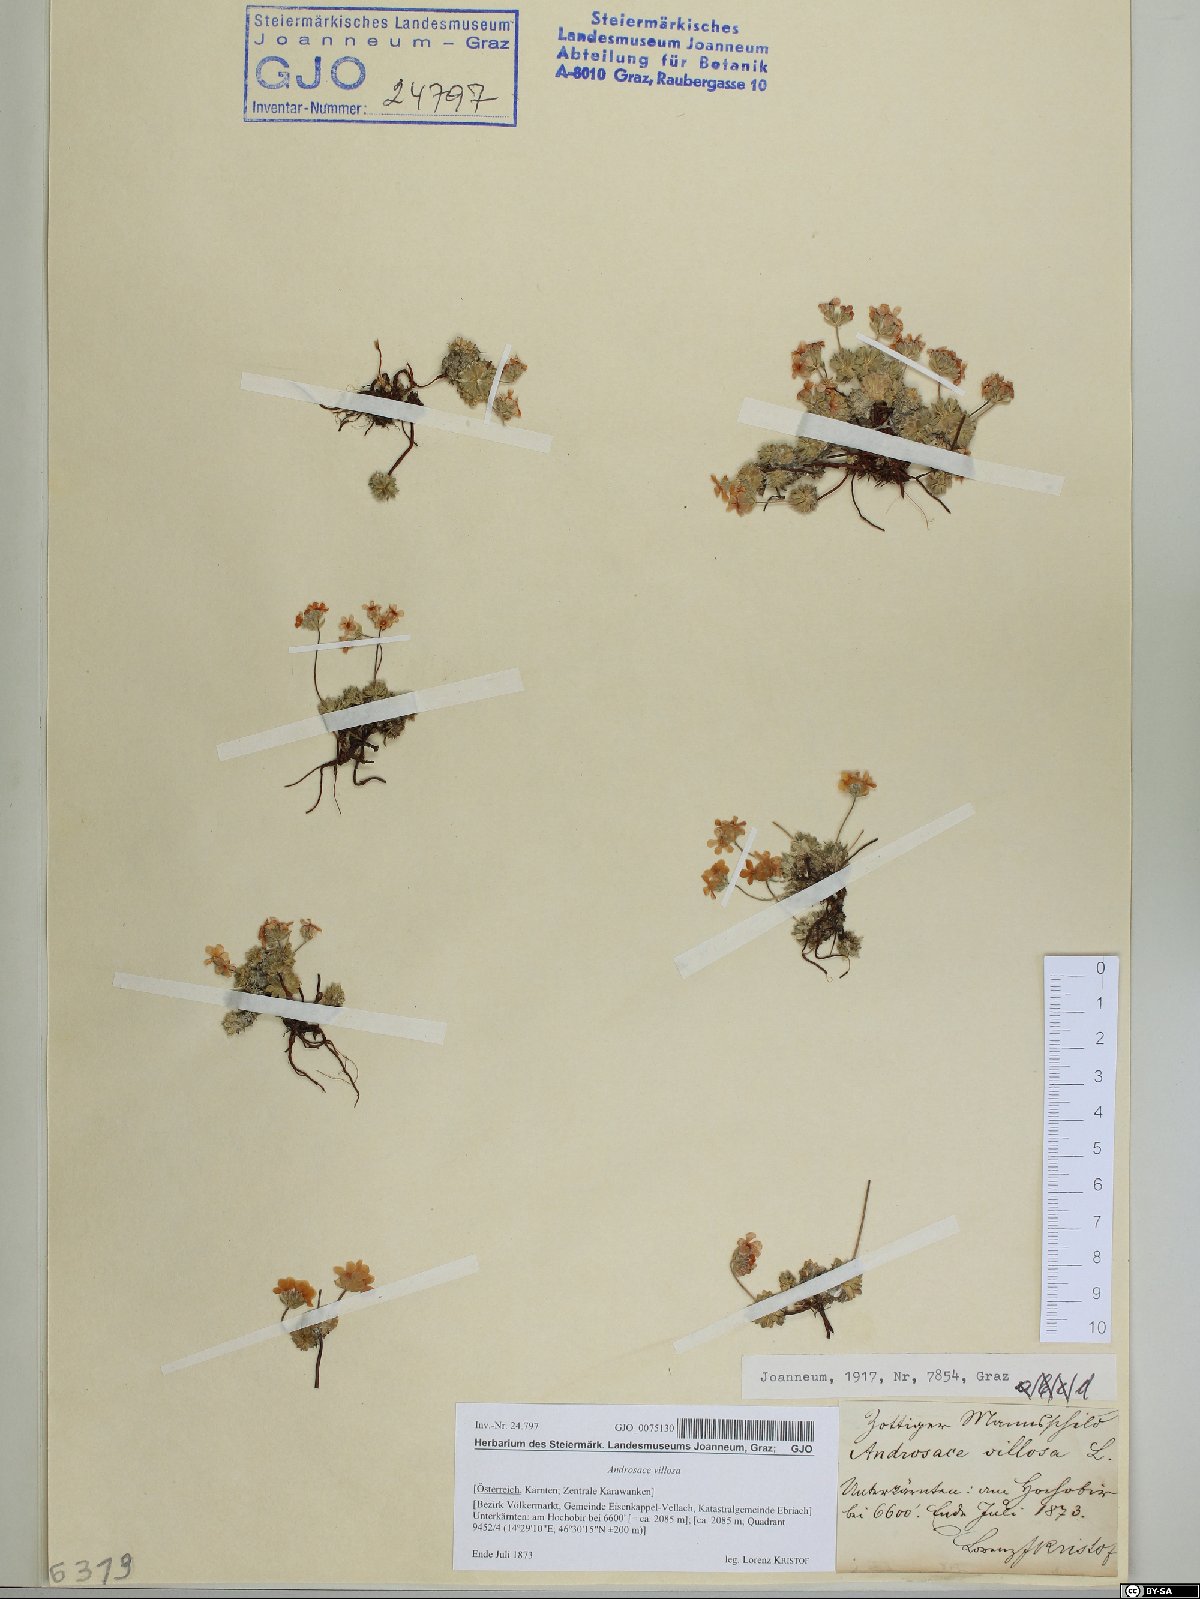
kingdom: Plantae
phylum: Tracheophyta
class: Magnoliopsida
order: Ericales
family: Primulaceae
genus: Androsace
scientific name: Androsace villosa
